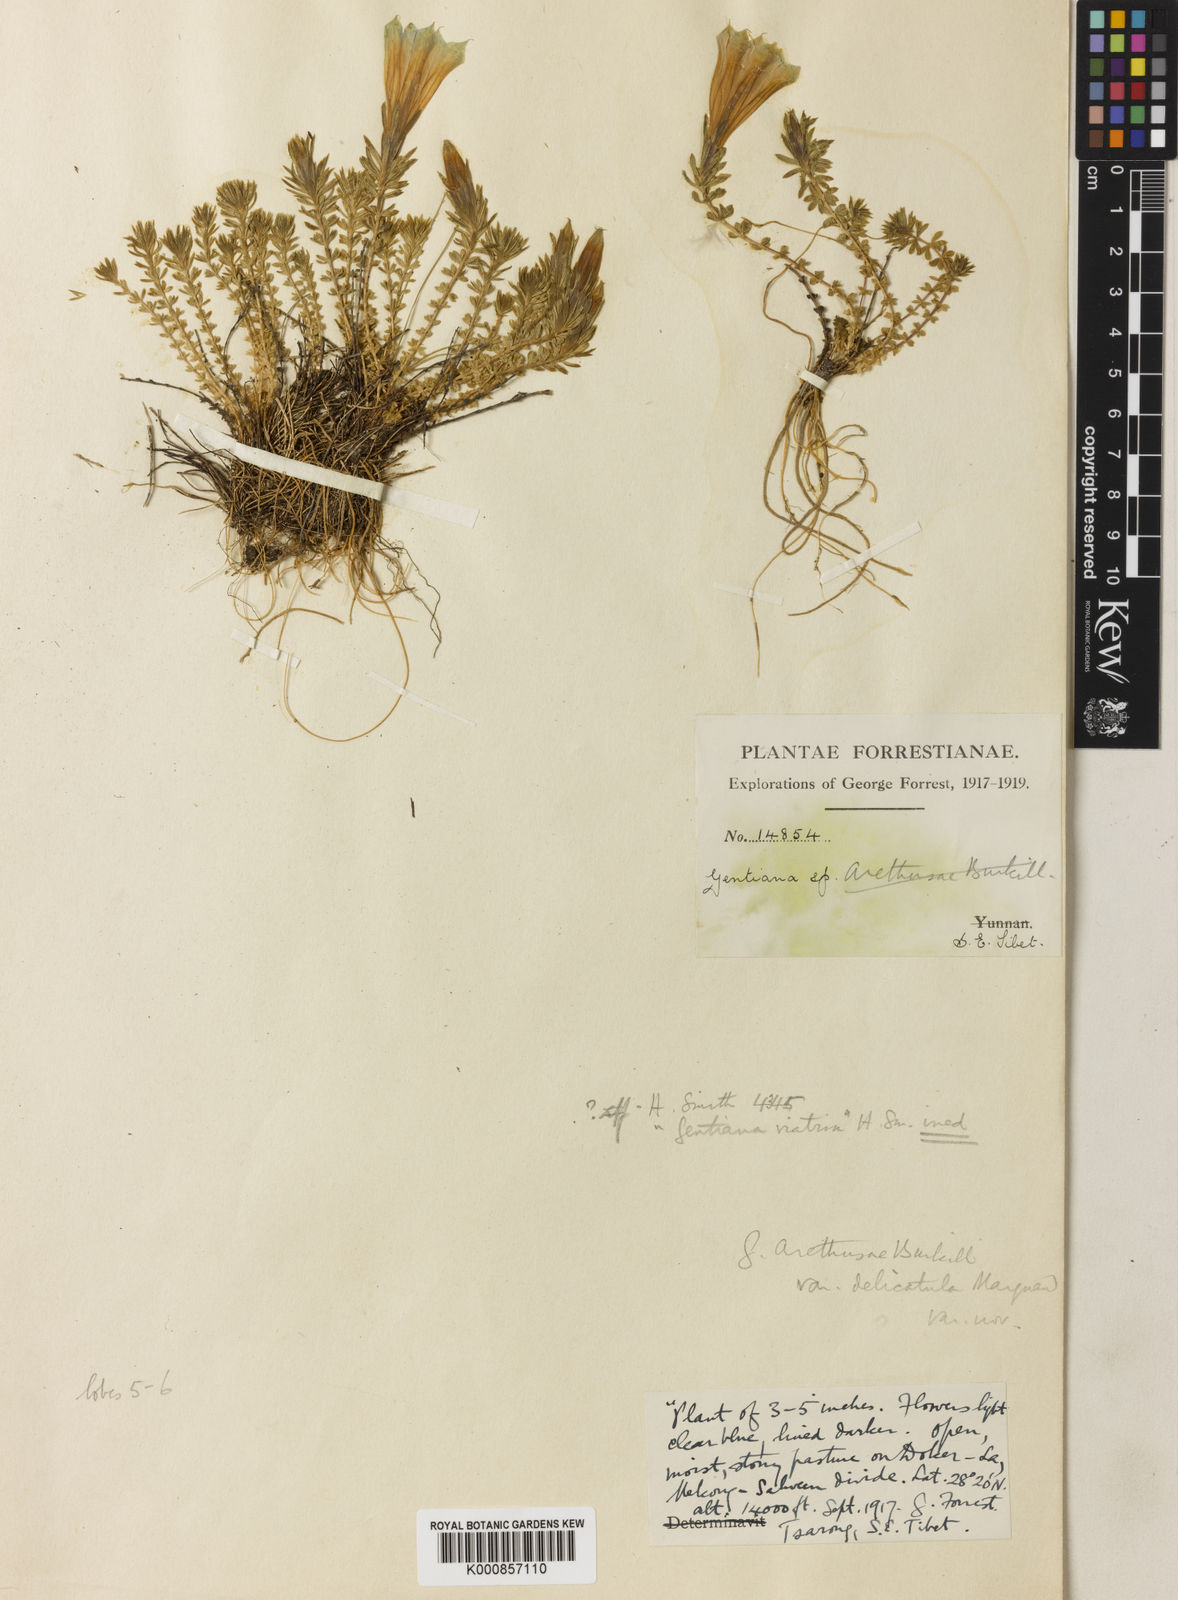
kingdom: Plantae
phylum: Tracheophyta
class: Magnoliopsida
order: Gentianales
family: Gentianaceae
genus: Gentiana
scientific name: Gentiana arethusae
